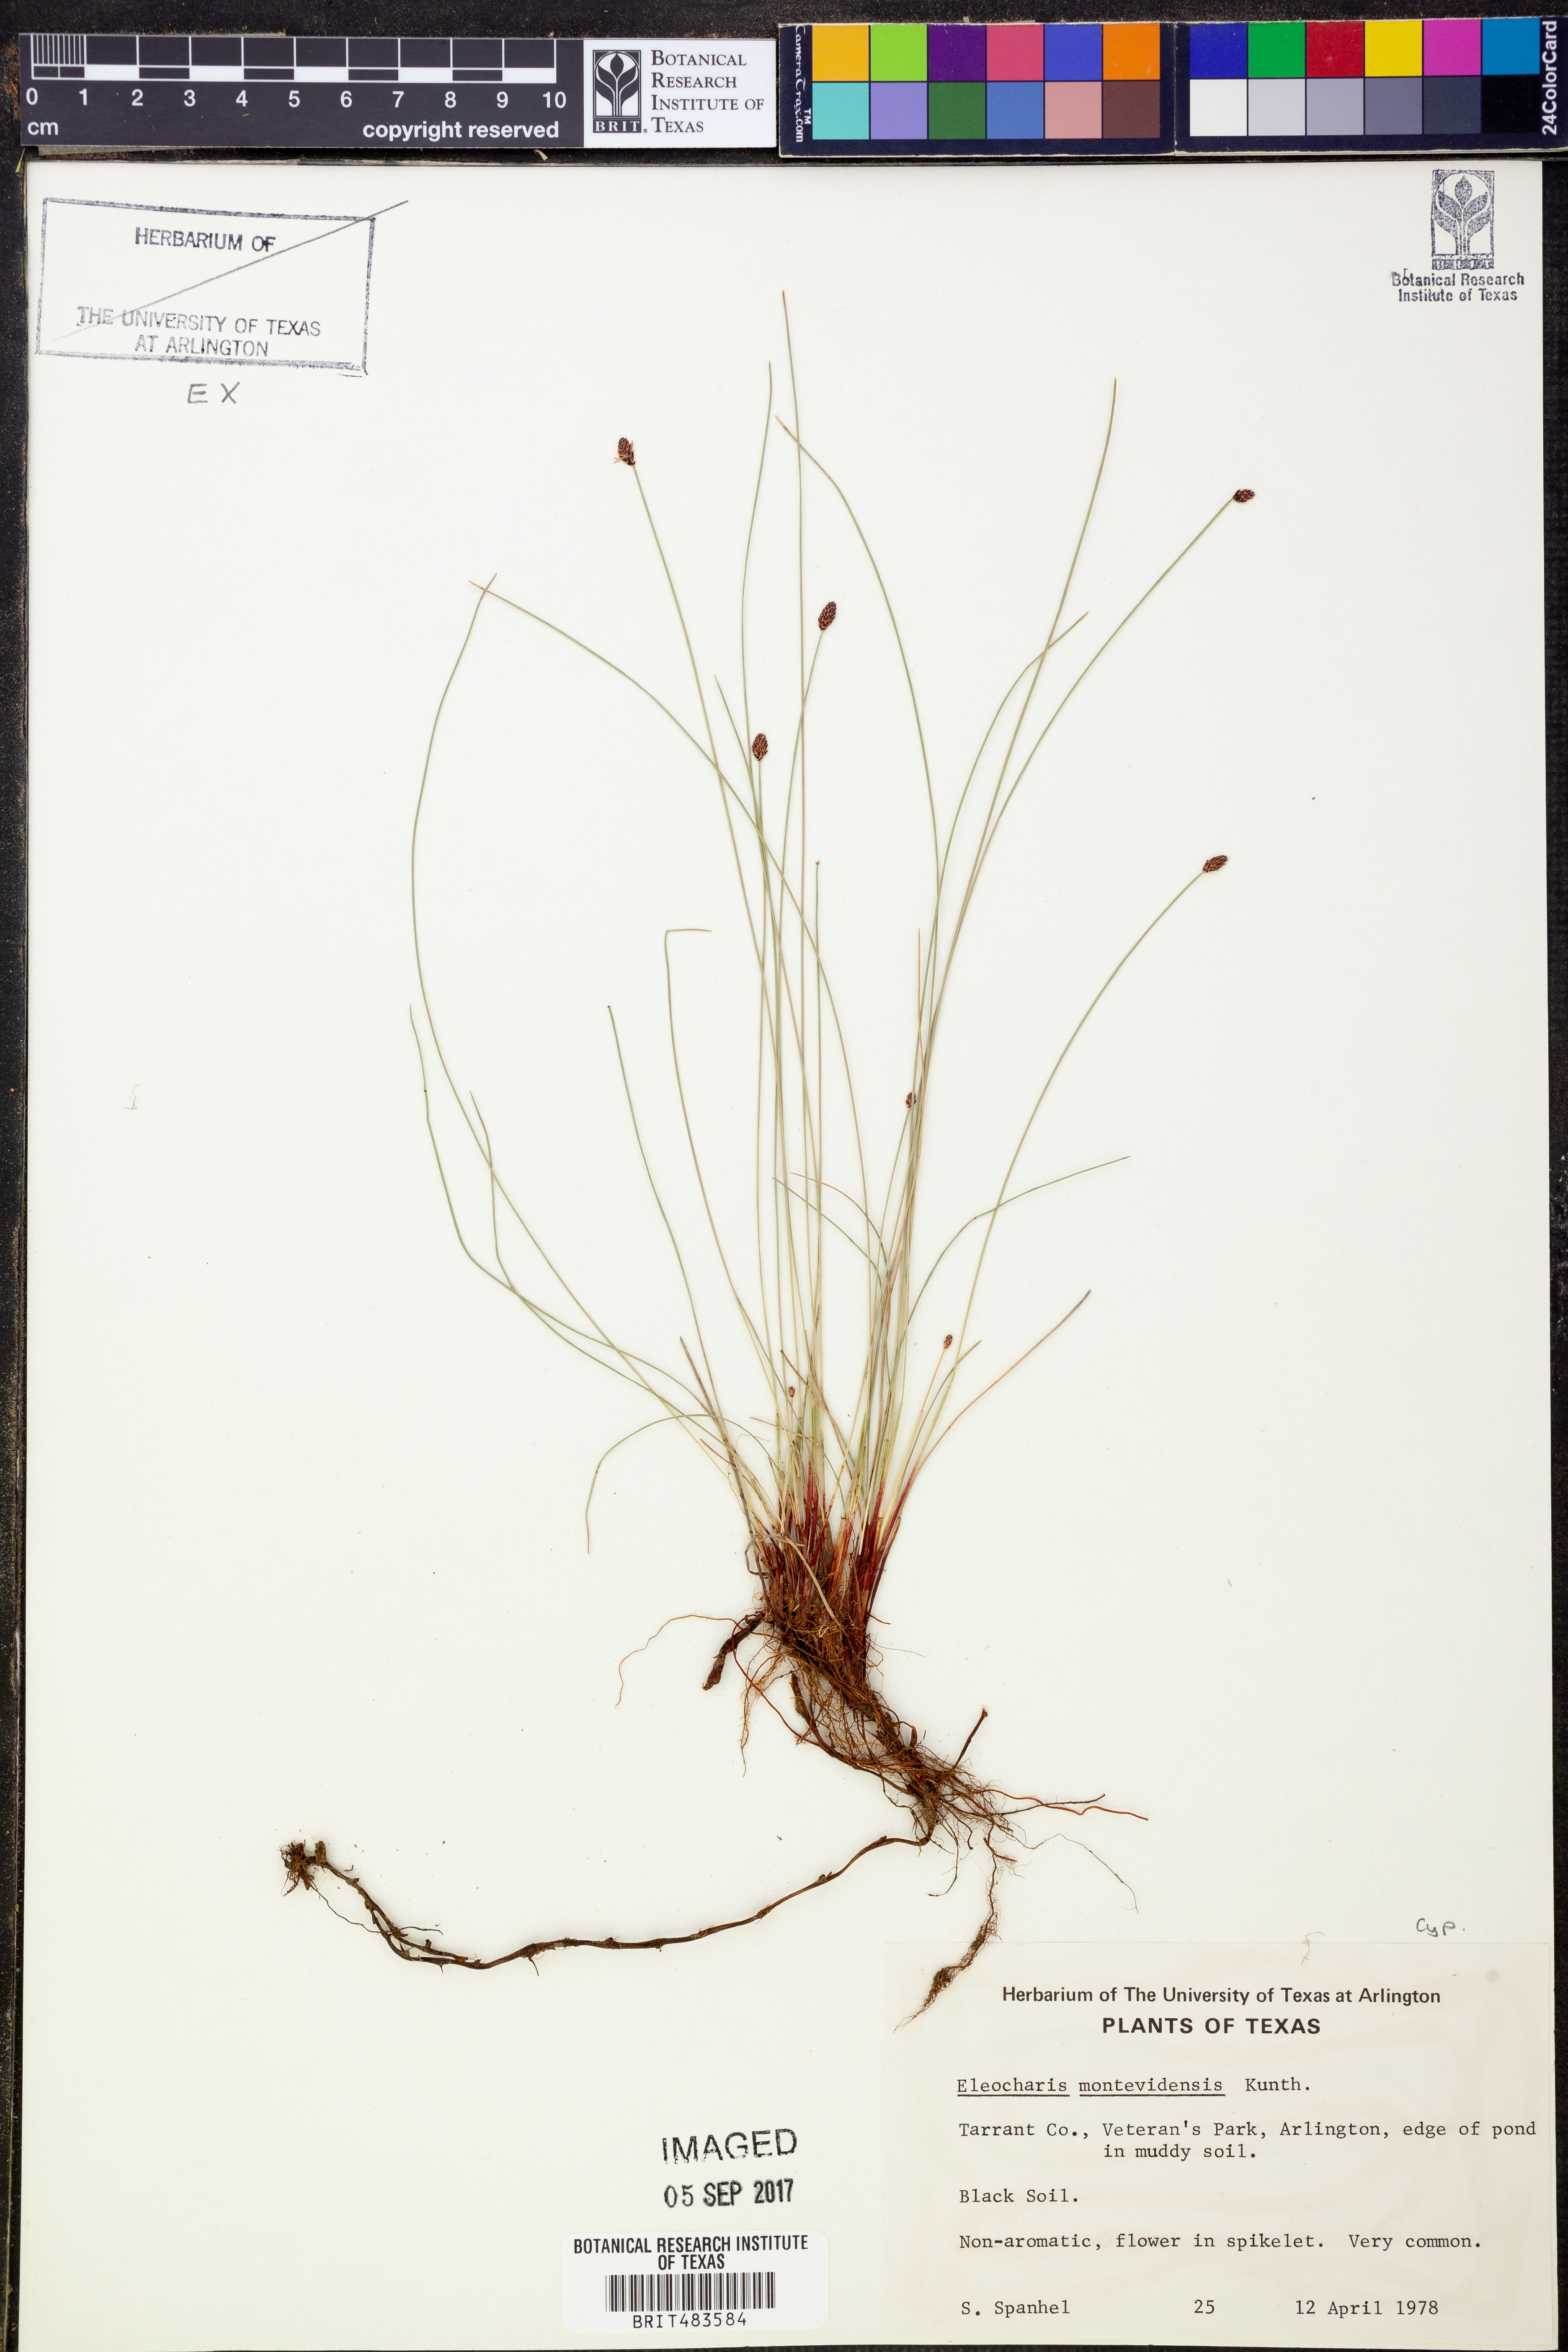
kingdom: Plantae
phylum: Tracheophyta
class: Liliopsida
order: Poales
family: Cyperaceae
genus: Eleocharis
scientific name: Eleocharis montevidensis
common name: Sand spike-rush
